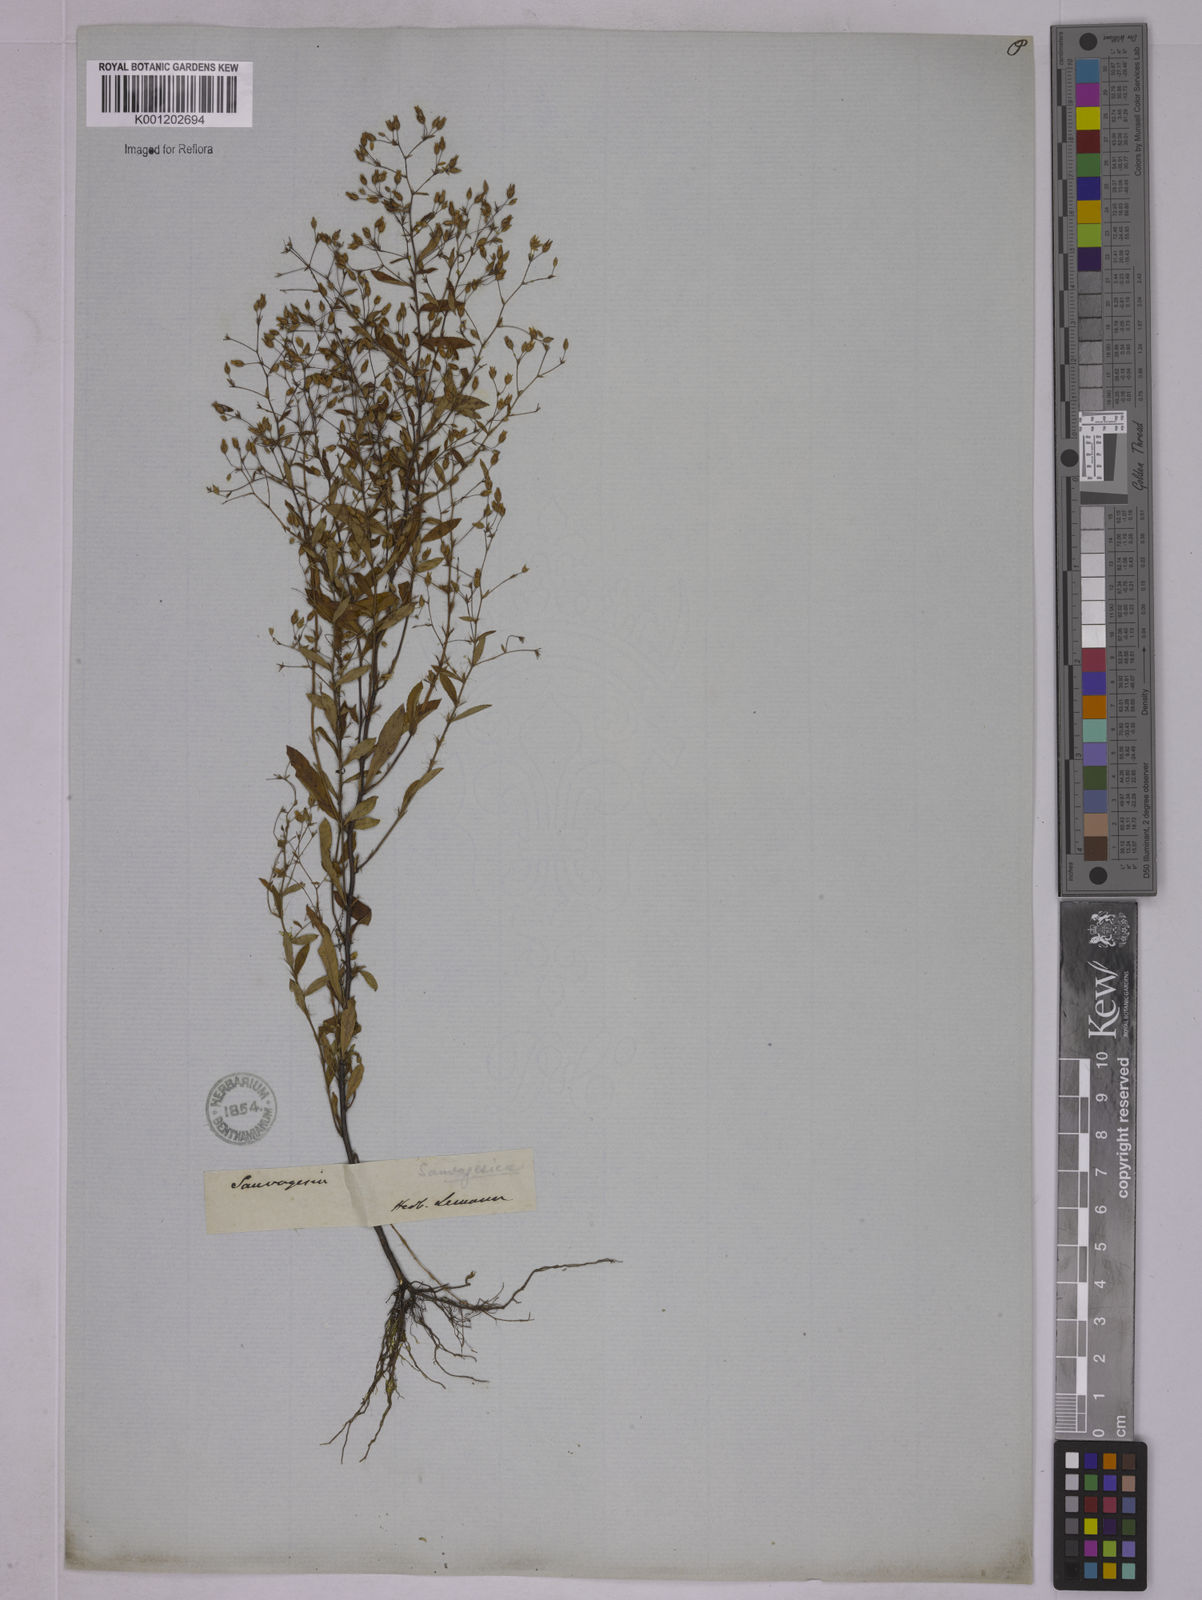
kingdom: Plantae
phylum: Tracheophyta
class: Magnoliopsida
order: Malpighiales
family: Ochnaceae
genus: Sauvagesia
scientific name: Sauvagesia ramosissima
